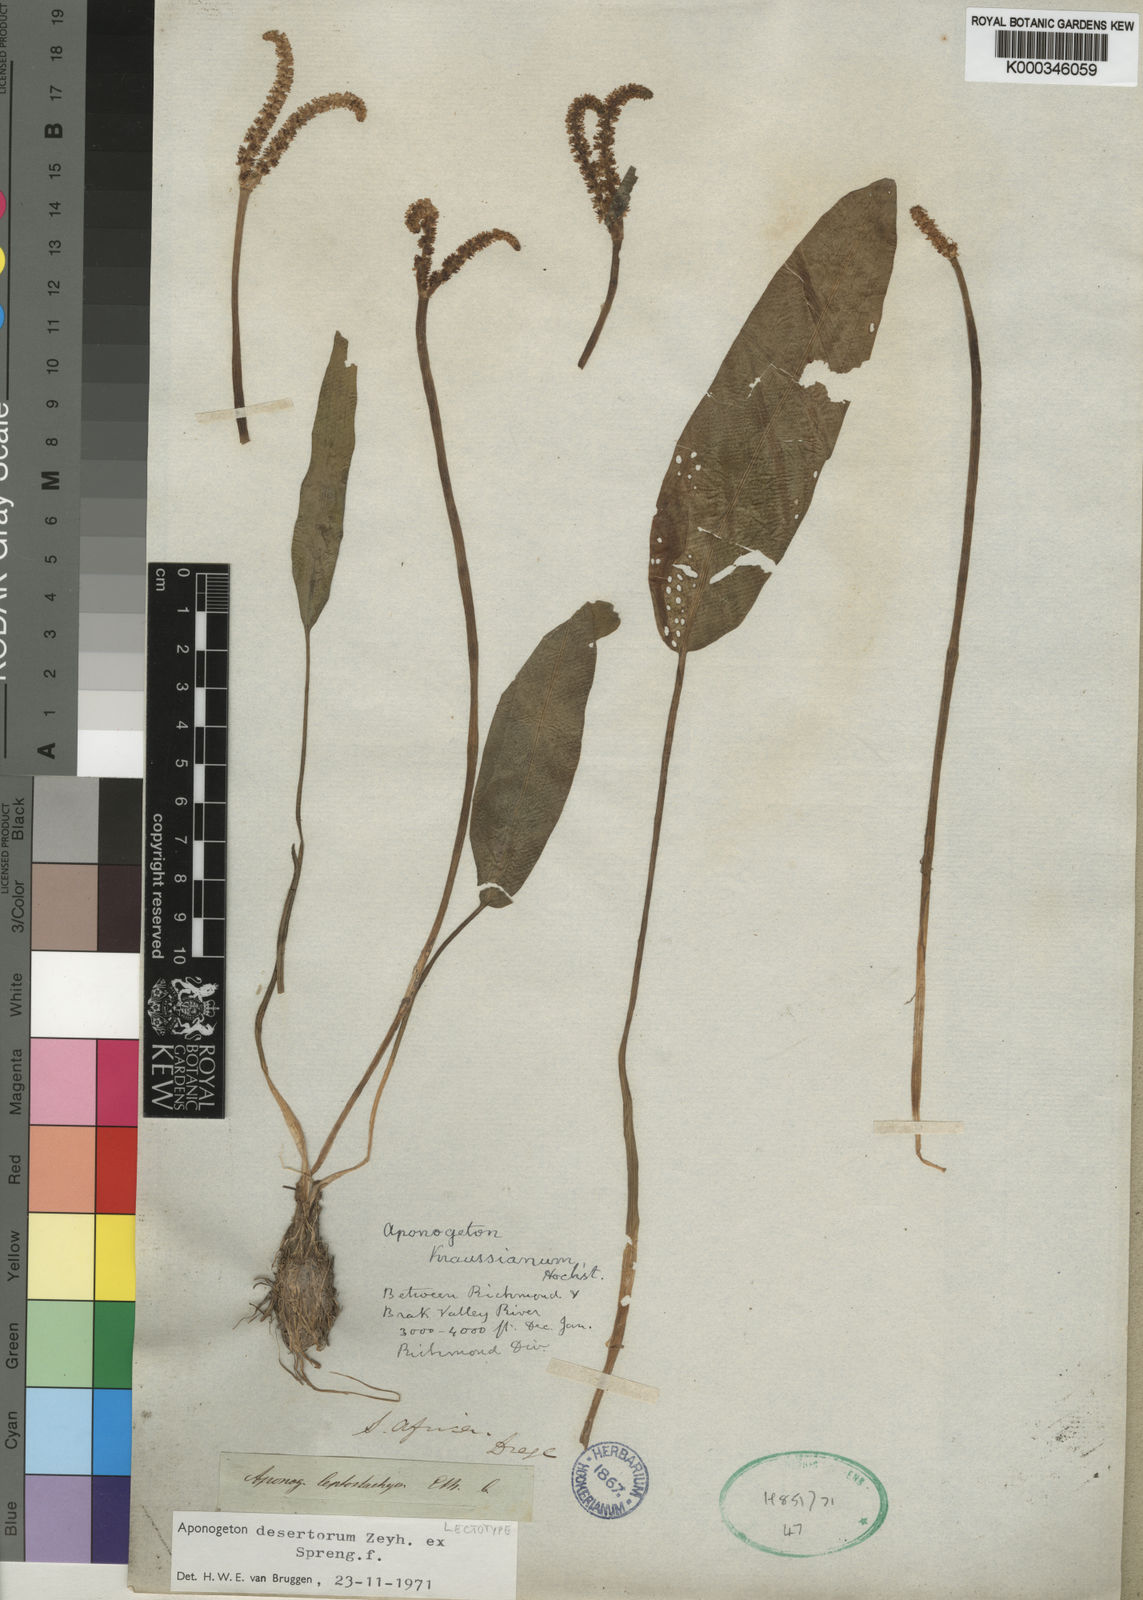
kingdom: Plantae
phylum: Tracheophyta
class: Liliopsida
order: Alismatales
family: Aponogetonaceae
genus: Aponogeton
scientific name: Aponogeton desertorum
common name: Dog-with-two-tails
